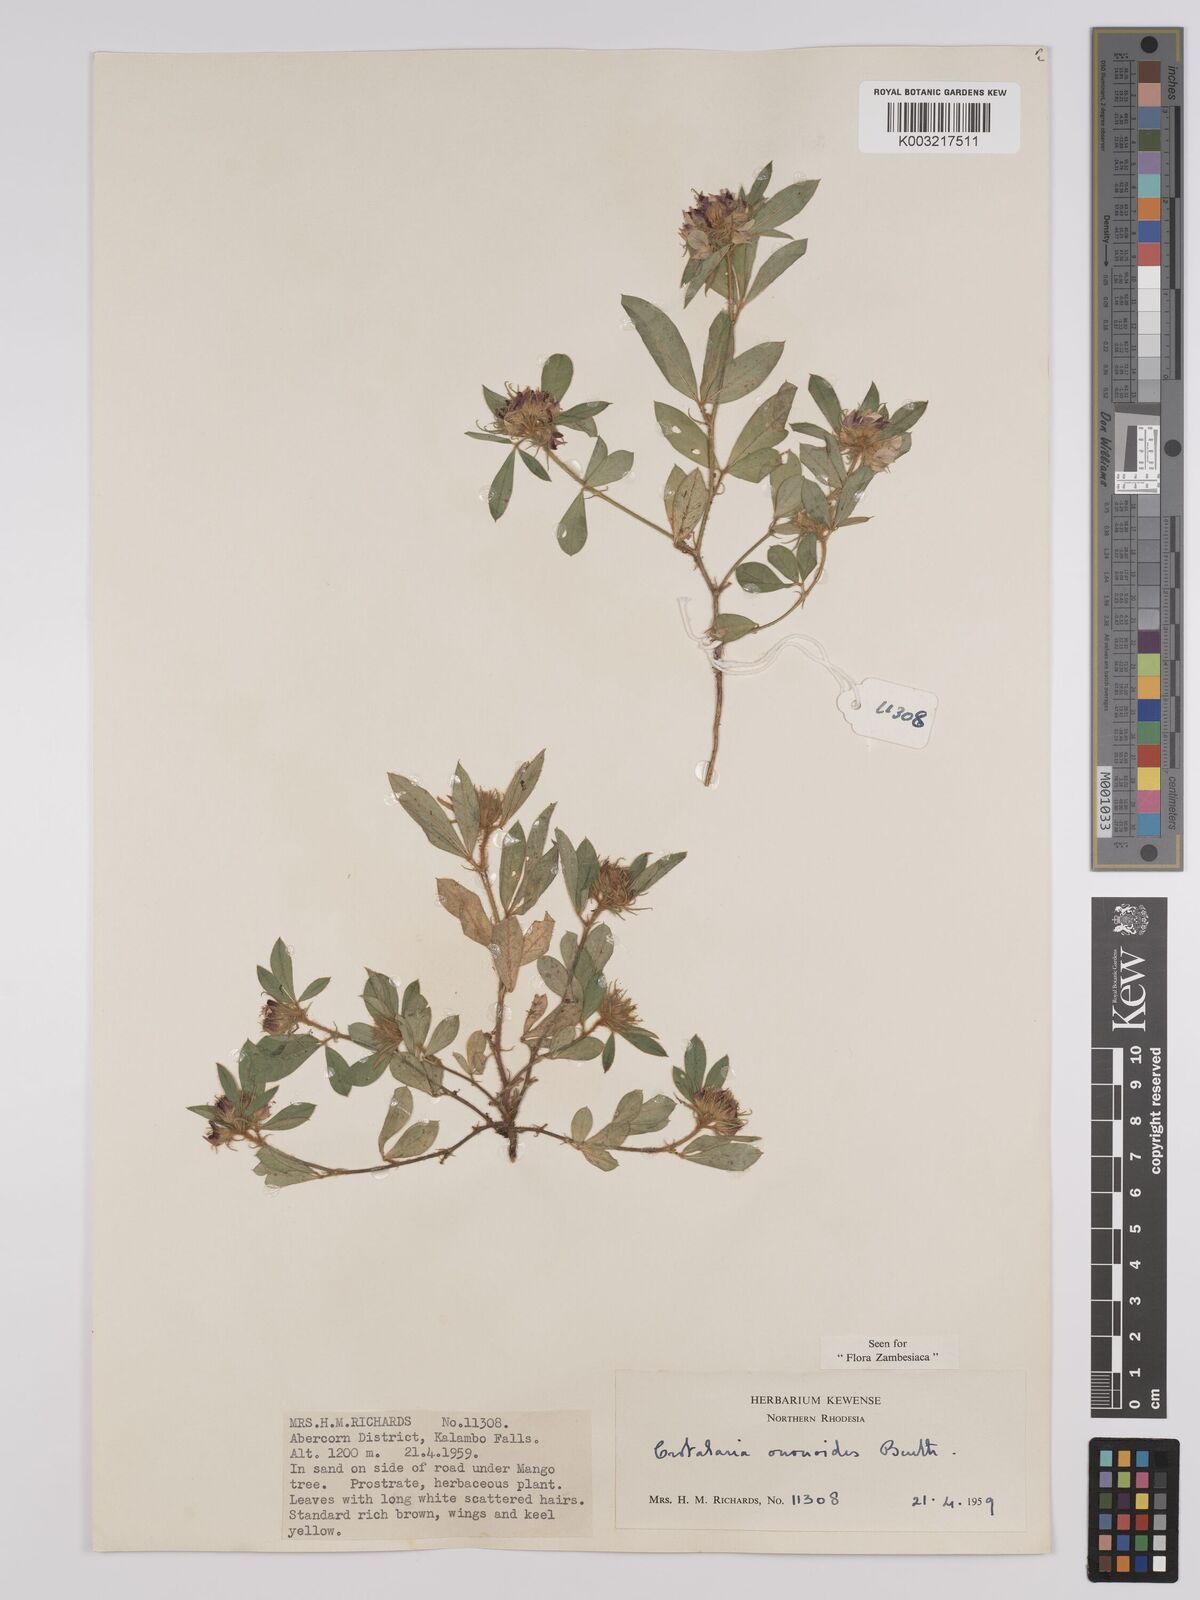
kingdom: Plantae
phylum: Tracheophyta
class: Magnoliopsida
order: Fabales
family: Fabaceae
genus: Crotalaria
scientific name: Crotalaria ononoides
